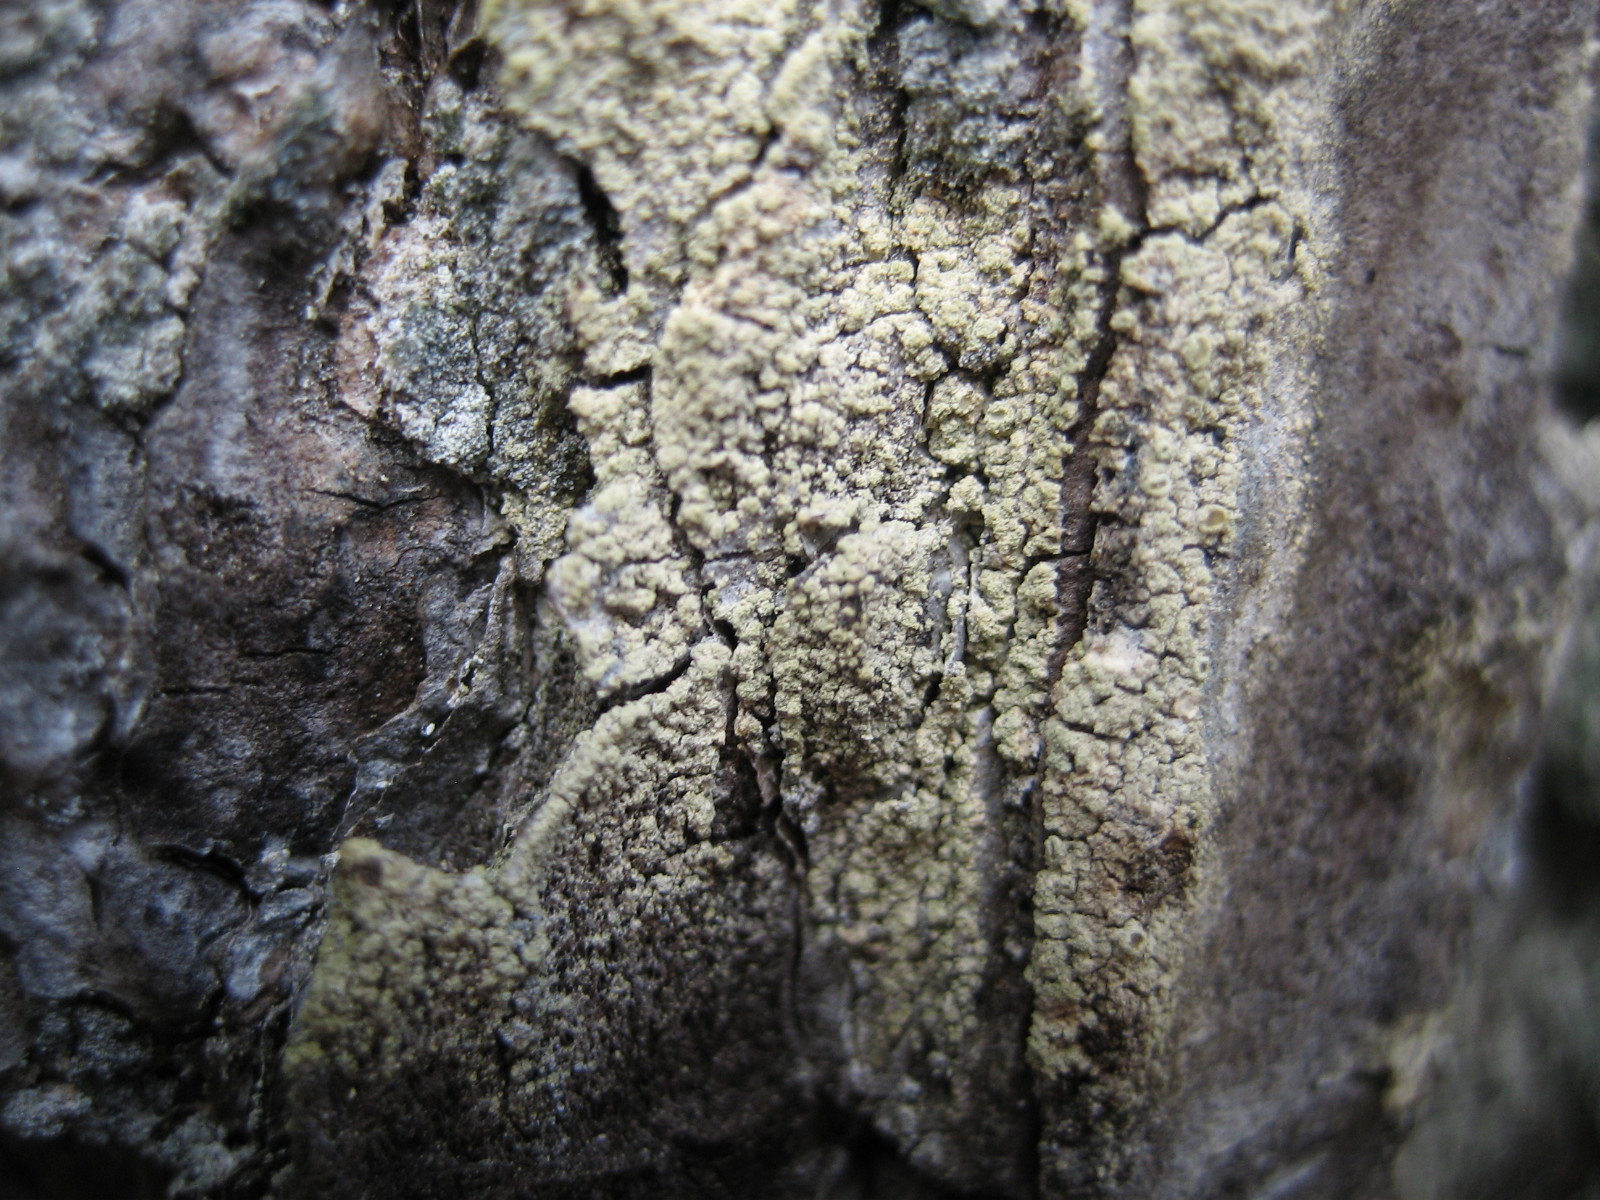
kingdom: Fungi
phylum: Ascomycota
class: Lecanoromycetes
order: Lecanorales
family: Lecanoraceae
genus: Straminella
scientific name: Straminella conizaeoides
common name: by-kantskivelav
